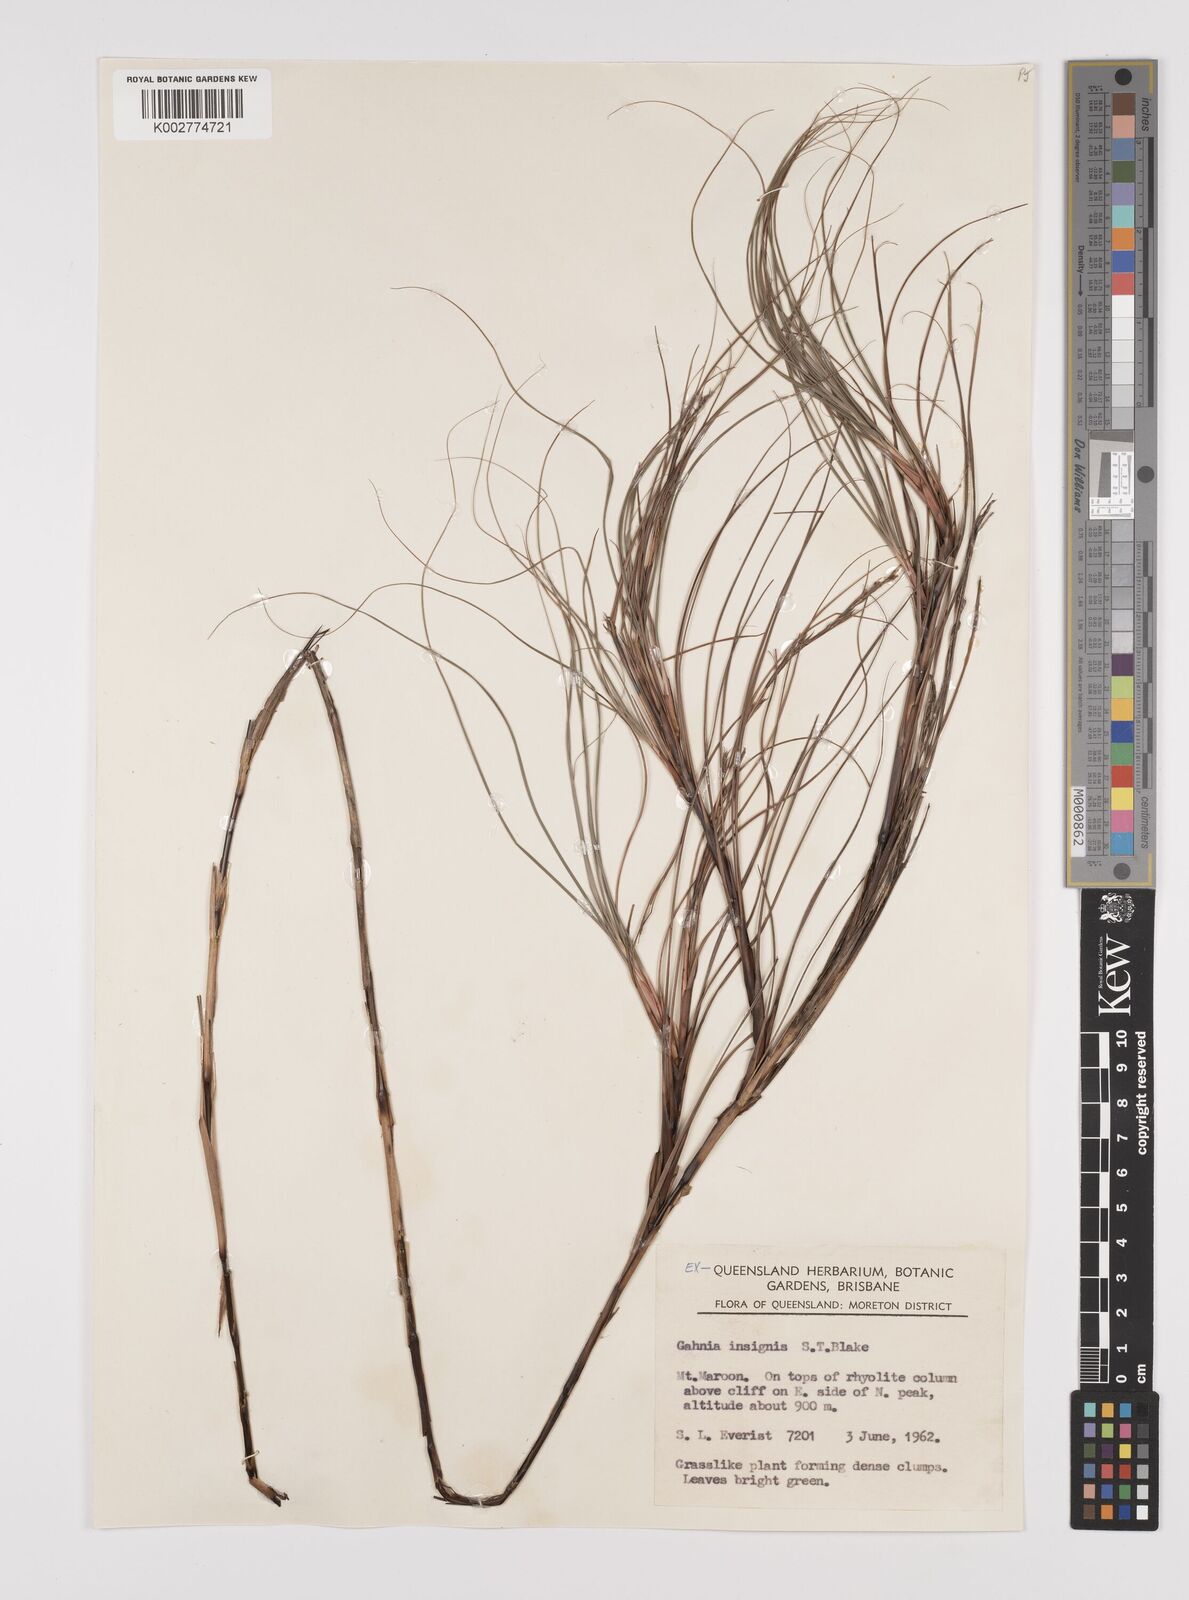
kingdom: Plantae
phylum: Tracheophyta
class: Liliopsida
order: Poales
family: Cyperaceae
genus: Gahnia
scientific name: Gahnia insignis
